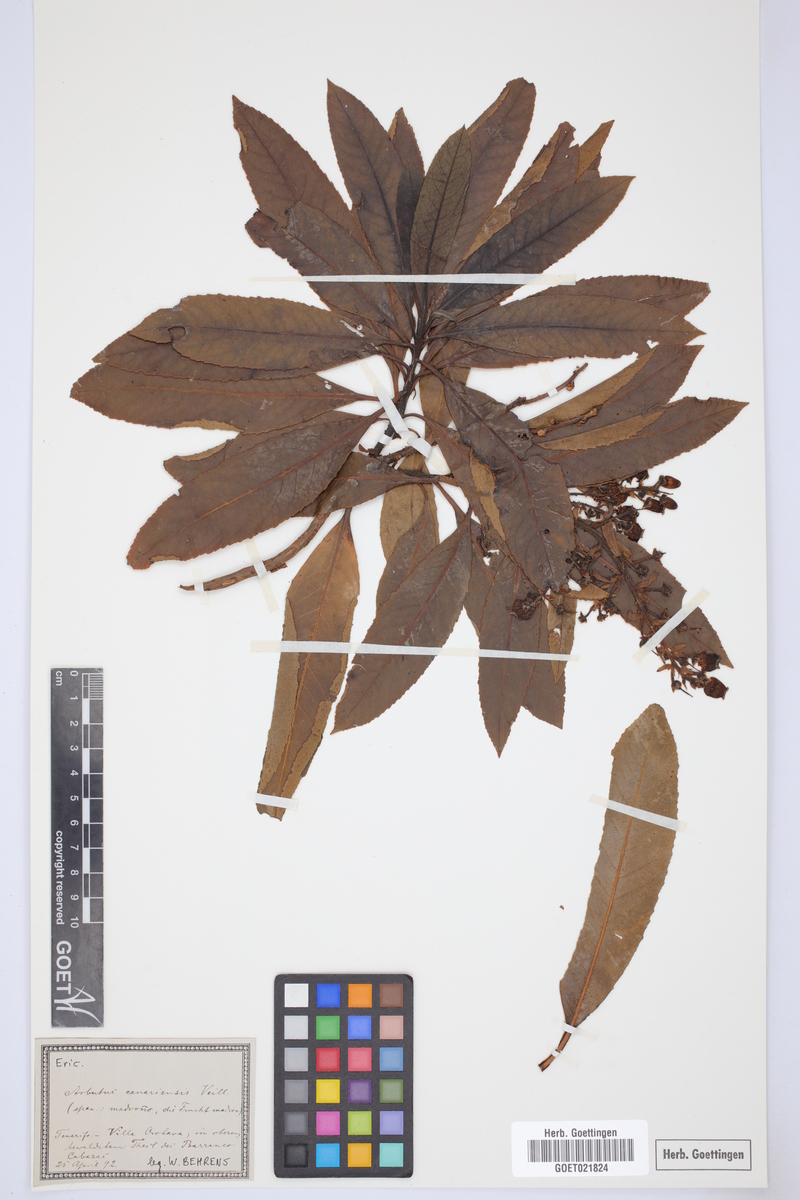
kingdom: Plantae
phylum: Tracheophyta
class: Magnoliopsida
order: Ericales
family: Ericaceae
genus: Arbutus
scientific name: Arbutus canariensis
